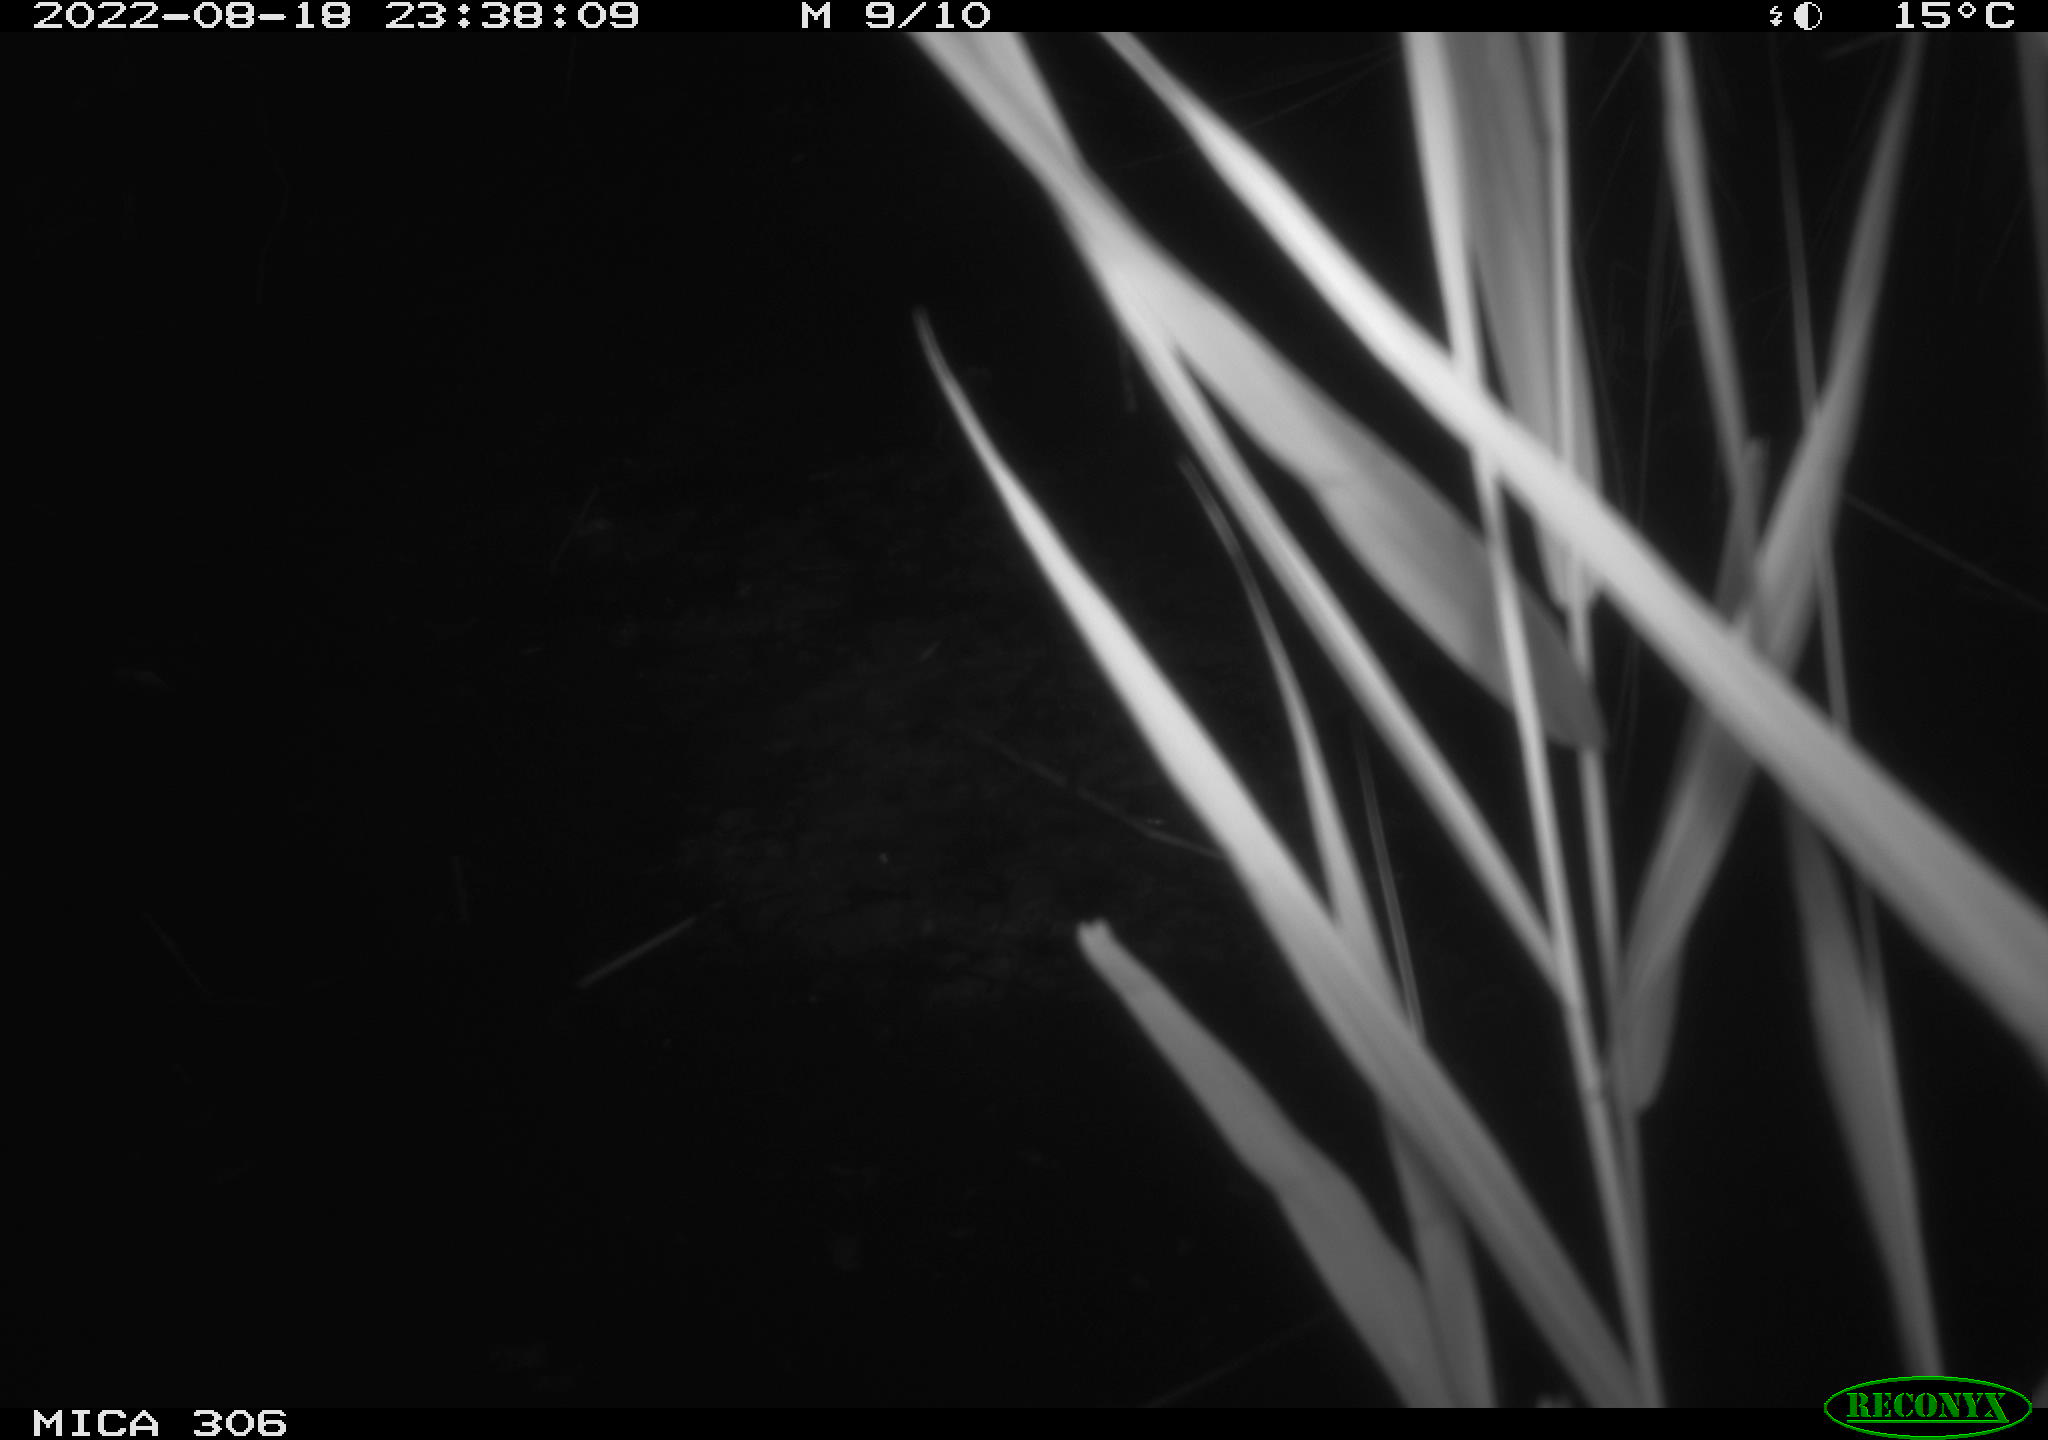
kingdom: Animalia
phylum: Chordata
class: Mammalia
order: Rodentia
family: Muridae
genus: Rattus
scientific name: Rattus norvegicus
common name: Brown rat
